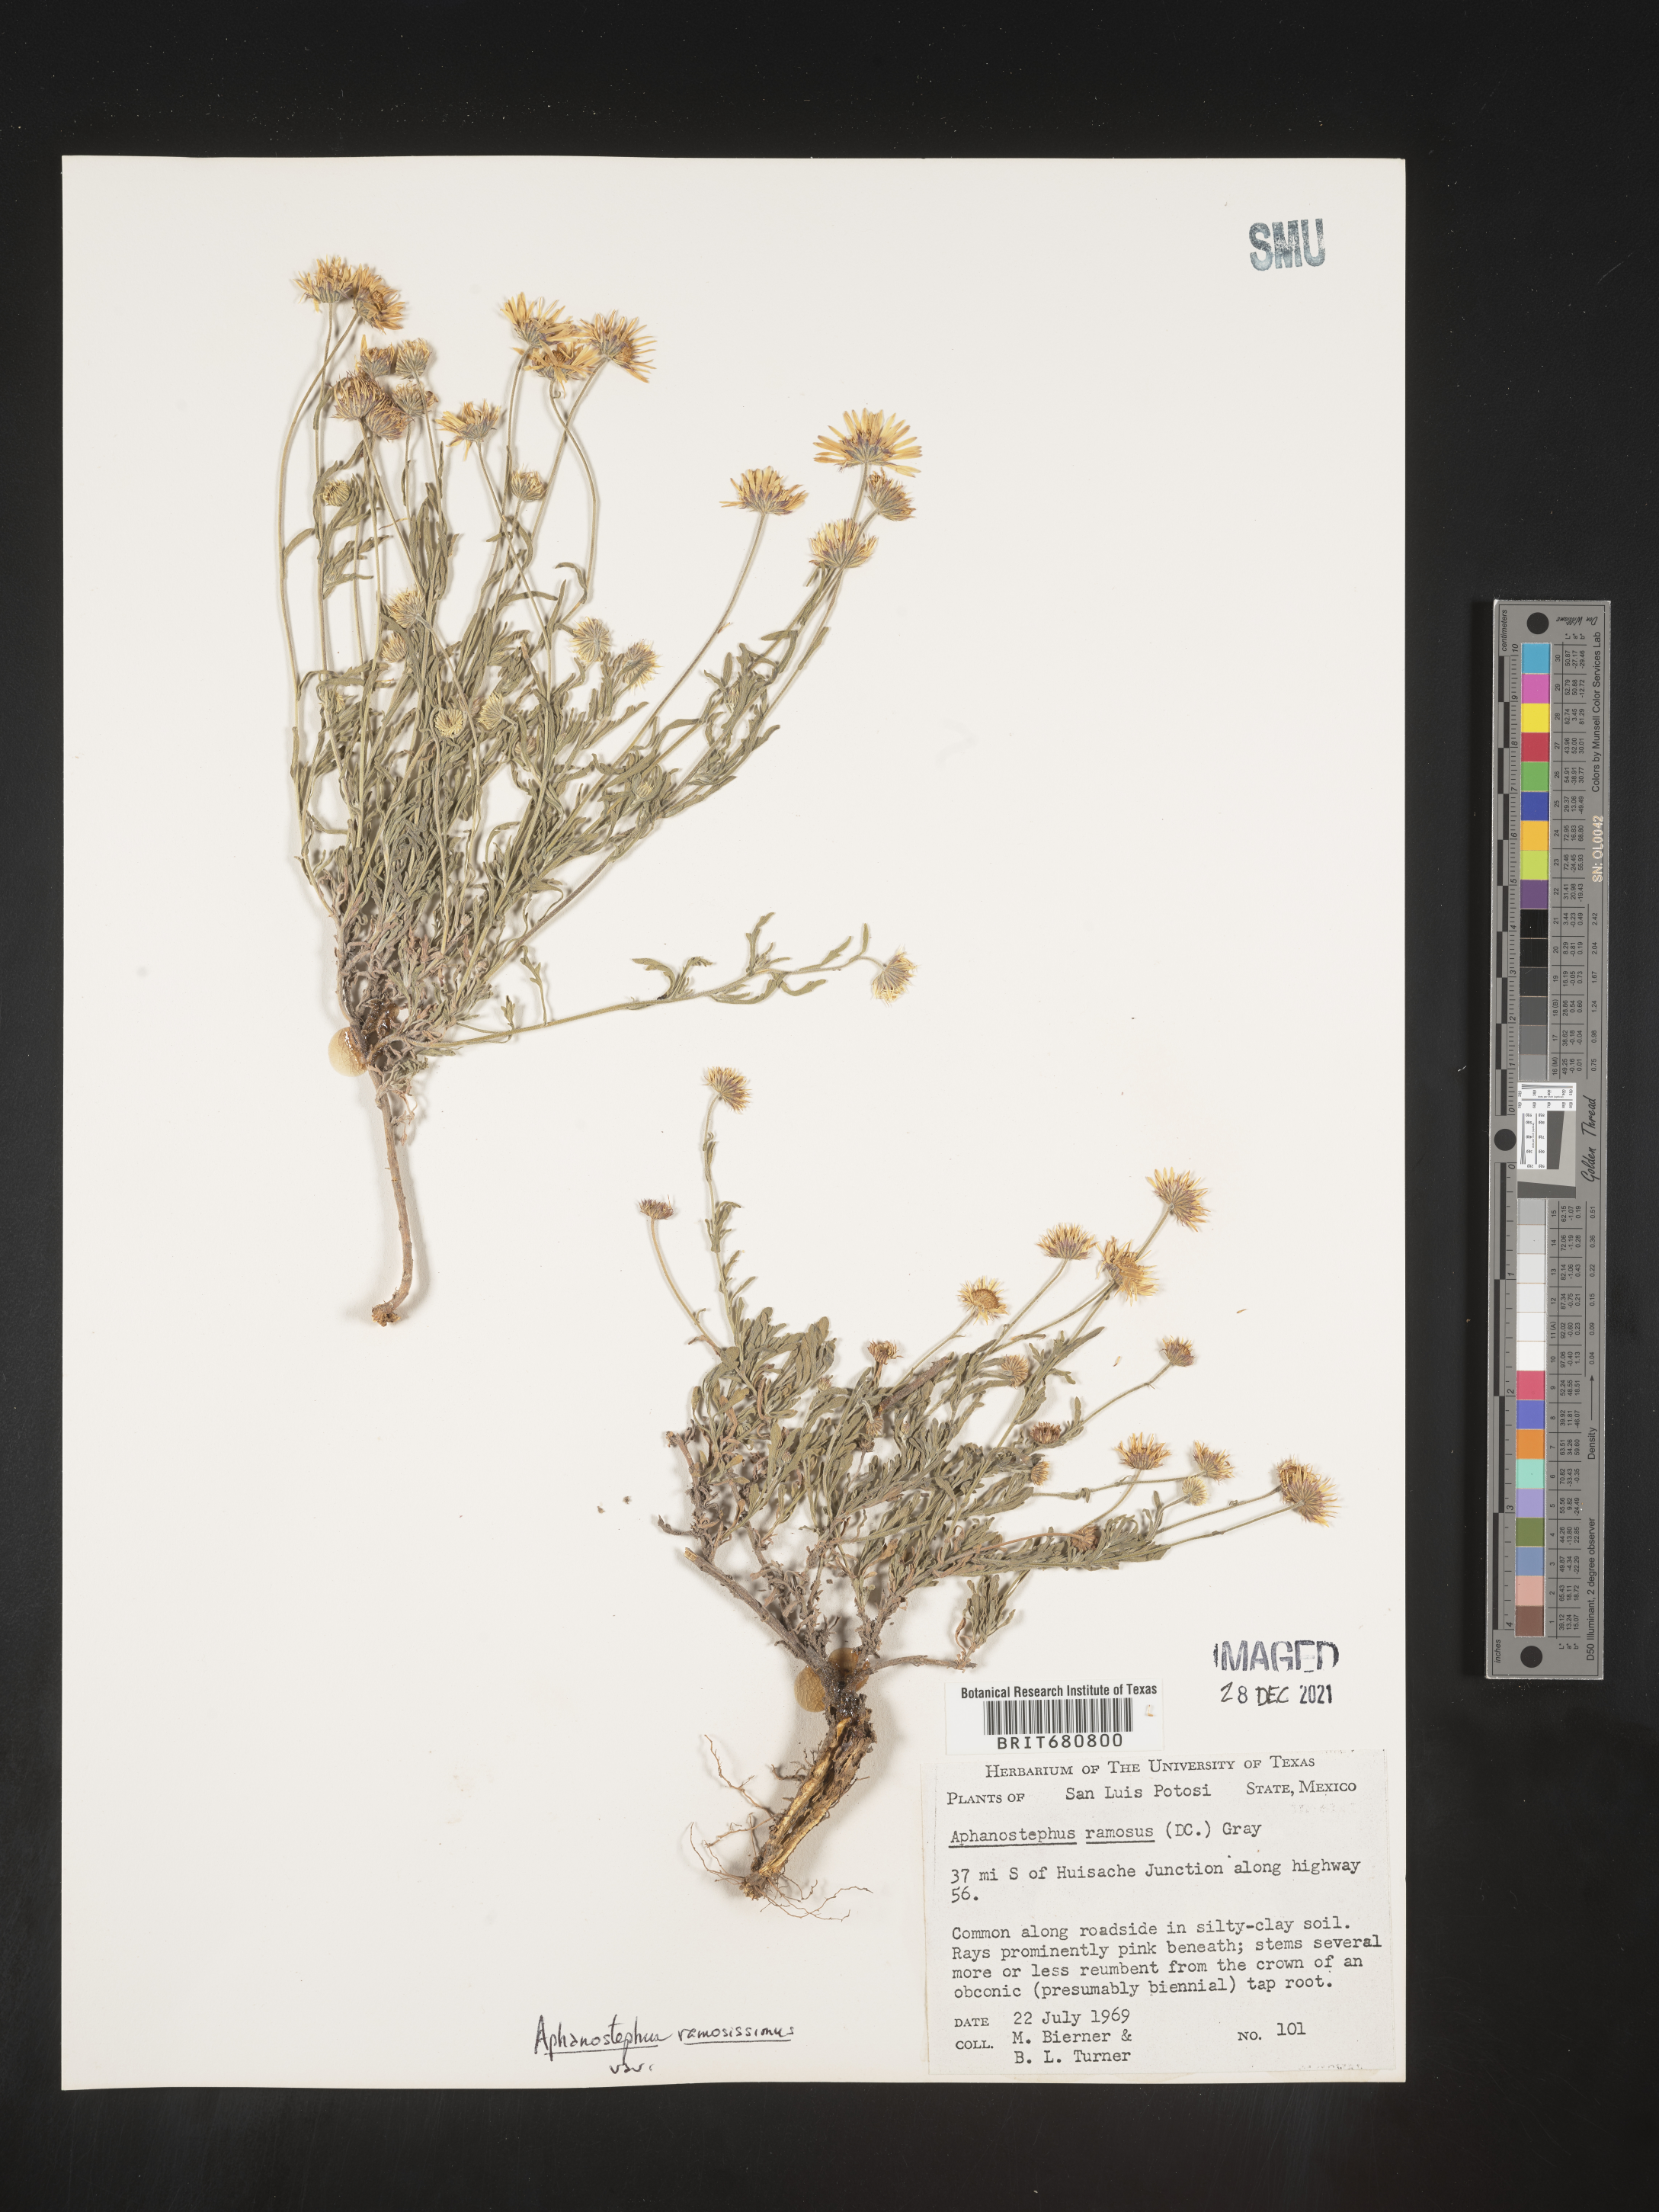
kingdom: Plantae
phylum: Tracheophyta
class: Magnoliopsida
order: Asterales
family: Asteraceae
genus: Aphanostephus
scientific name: Aphanostephus ramosissimus
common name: Plains lazy daisy
